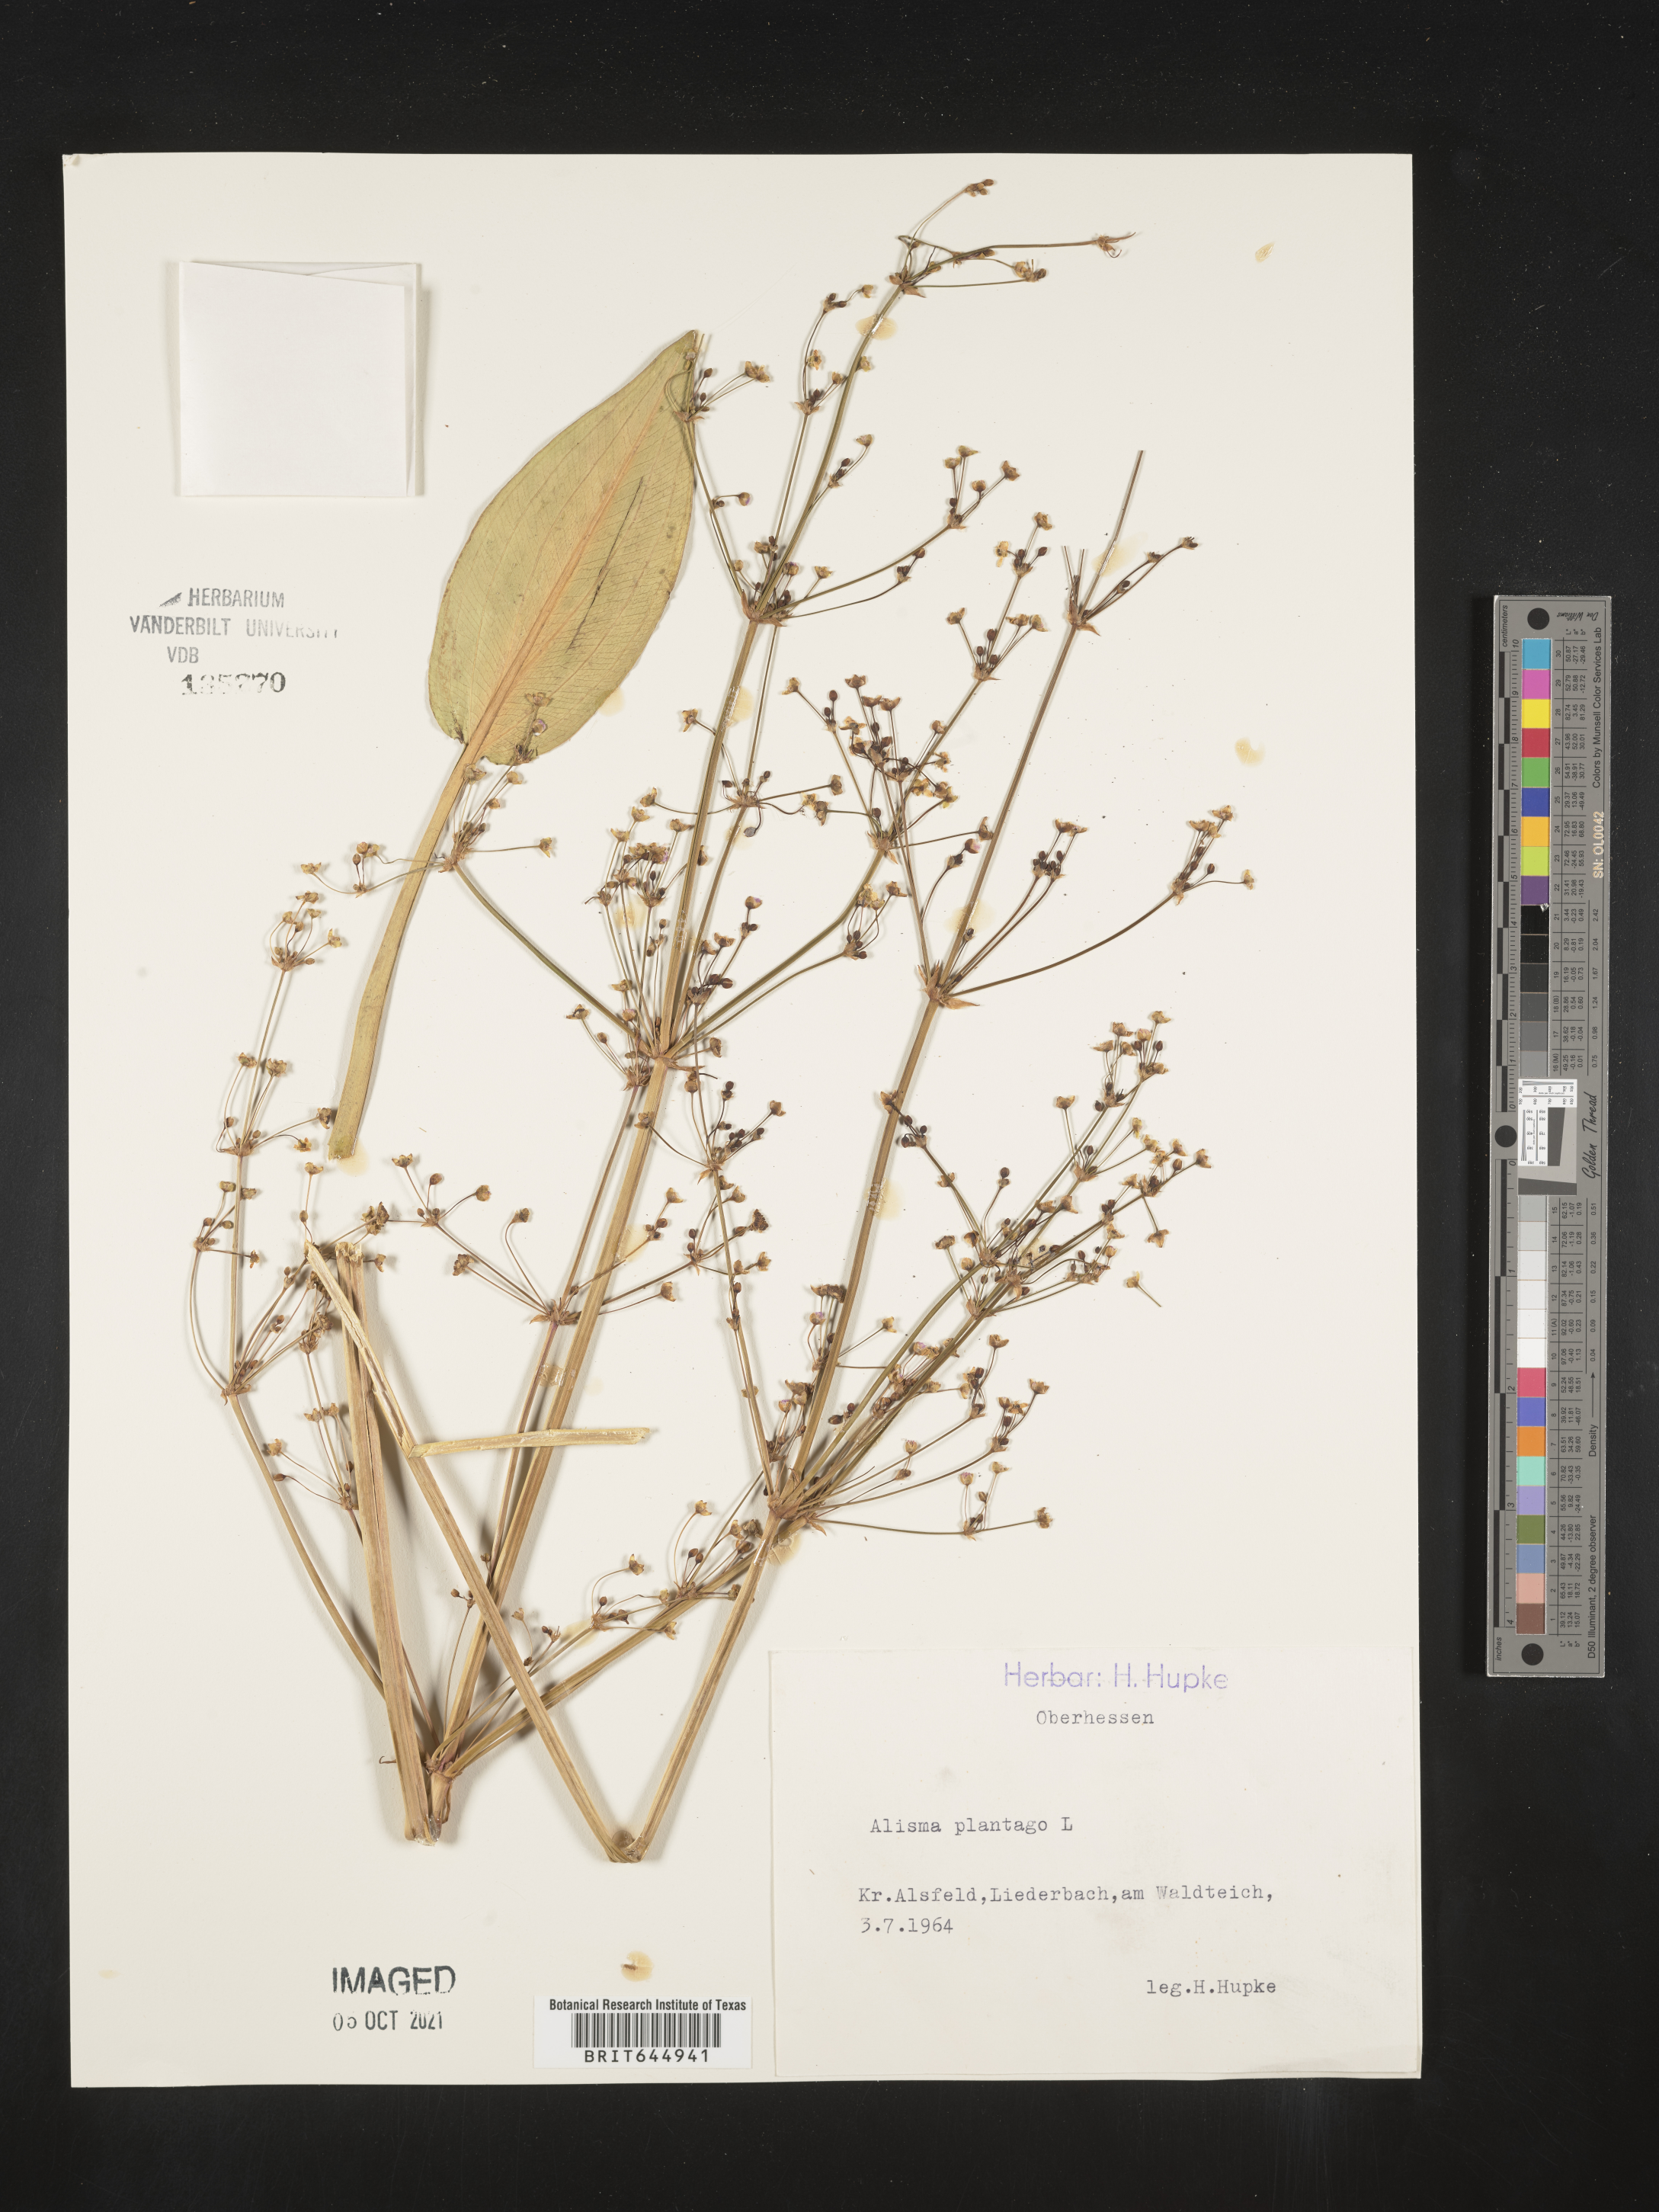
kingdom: Plantae
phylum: Tracheophyta
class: Liliopsida
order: Alismatales
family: Alismataceae
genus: Alisma
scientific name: Alisma plantago
